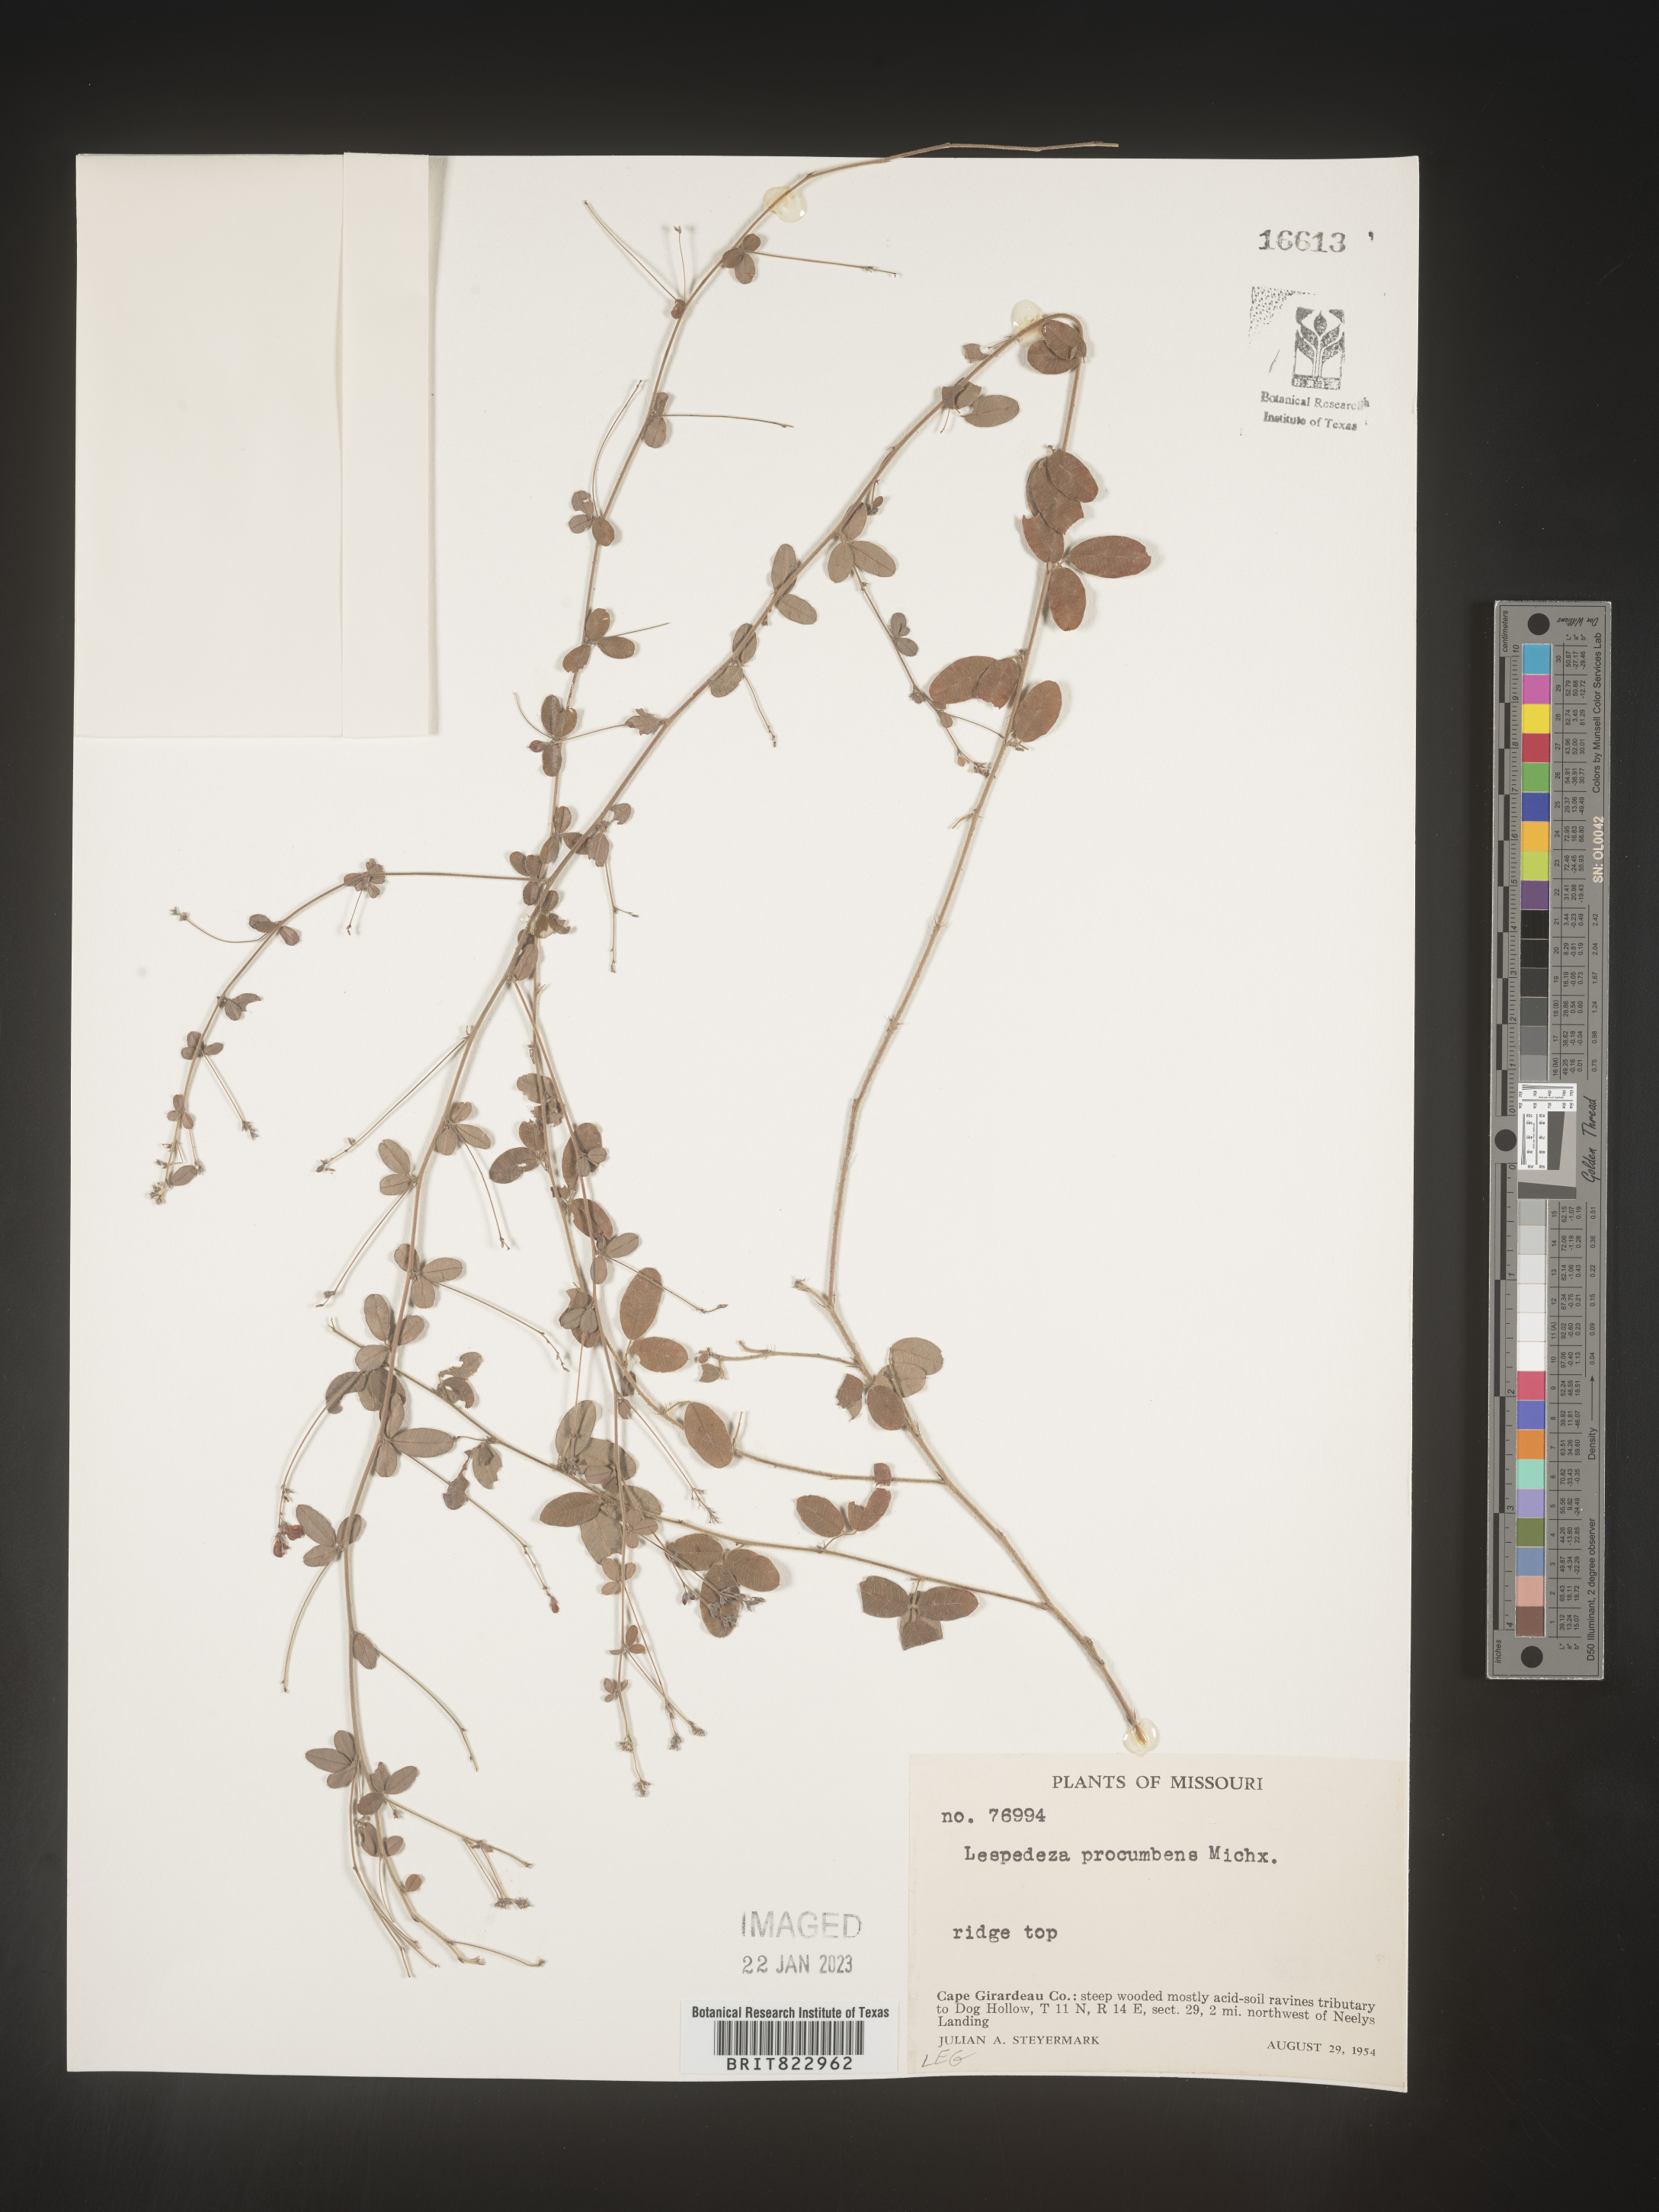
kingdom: Plantae
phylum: Tracheophyta
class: Magnoliopsida
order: Fabales
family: Fabaceae
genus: Lespedeza
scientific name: Lespedeza
